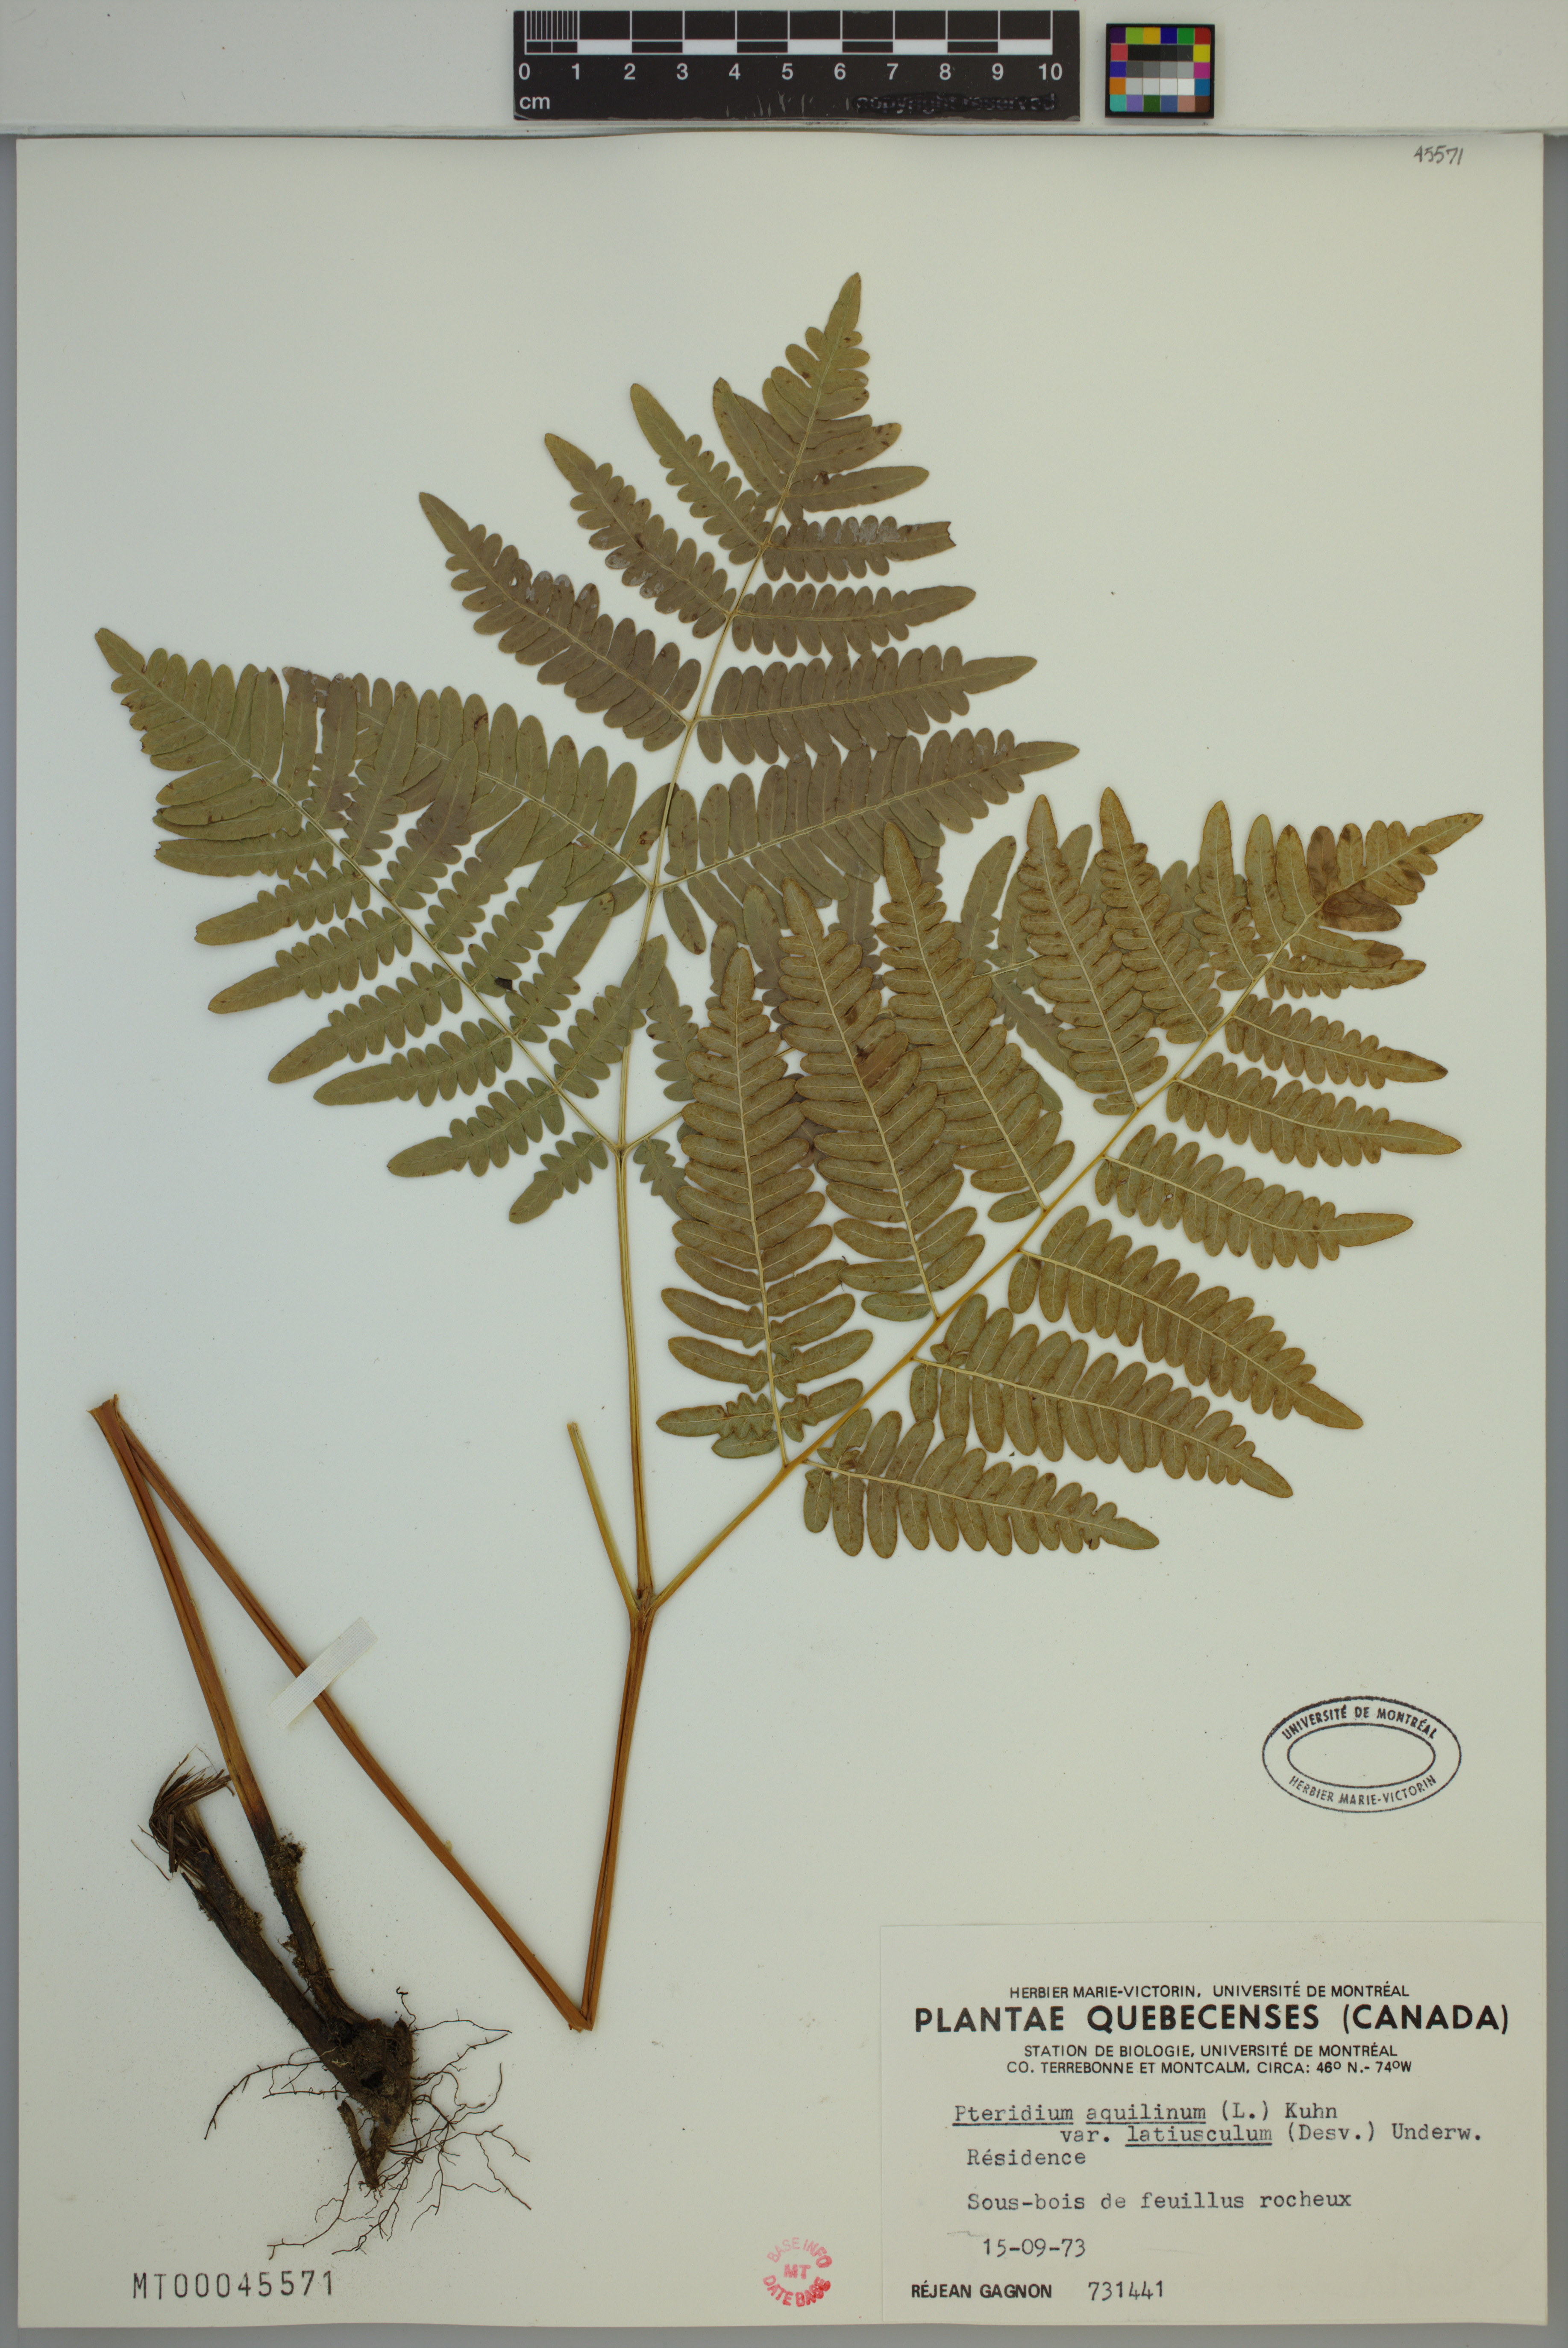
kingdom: Plantae
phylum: Tracheophyta
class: Polypodiopsida
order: Polypodiales
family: Dennstaedtiaceae
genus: Pteridium
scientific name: Pteridium aquilinum
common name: Bracken
